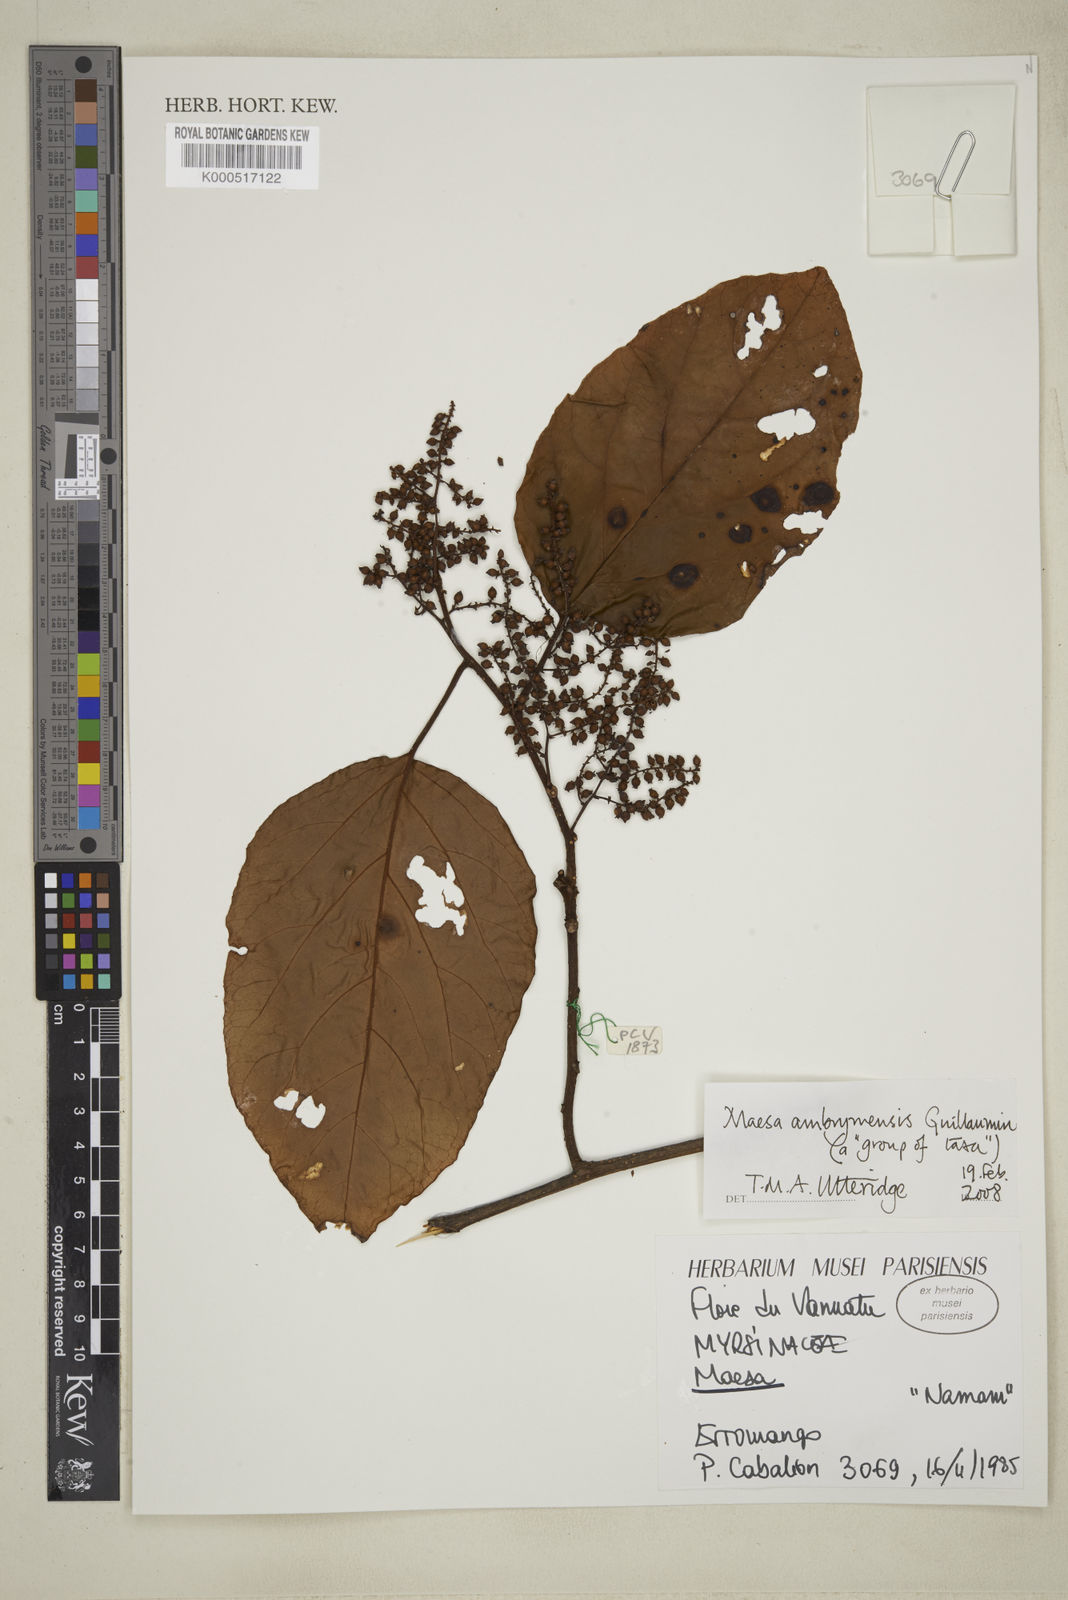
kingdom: Plantae
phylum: Tracheophyta
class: Magnoliopsida
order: Ericales
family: Primulaceae
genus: Maesa
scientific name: Maesa ambrymensis
